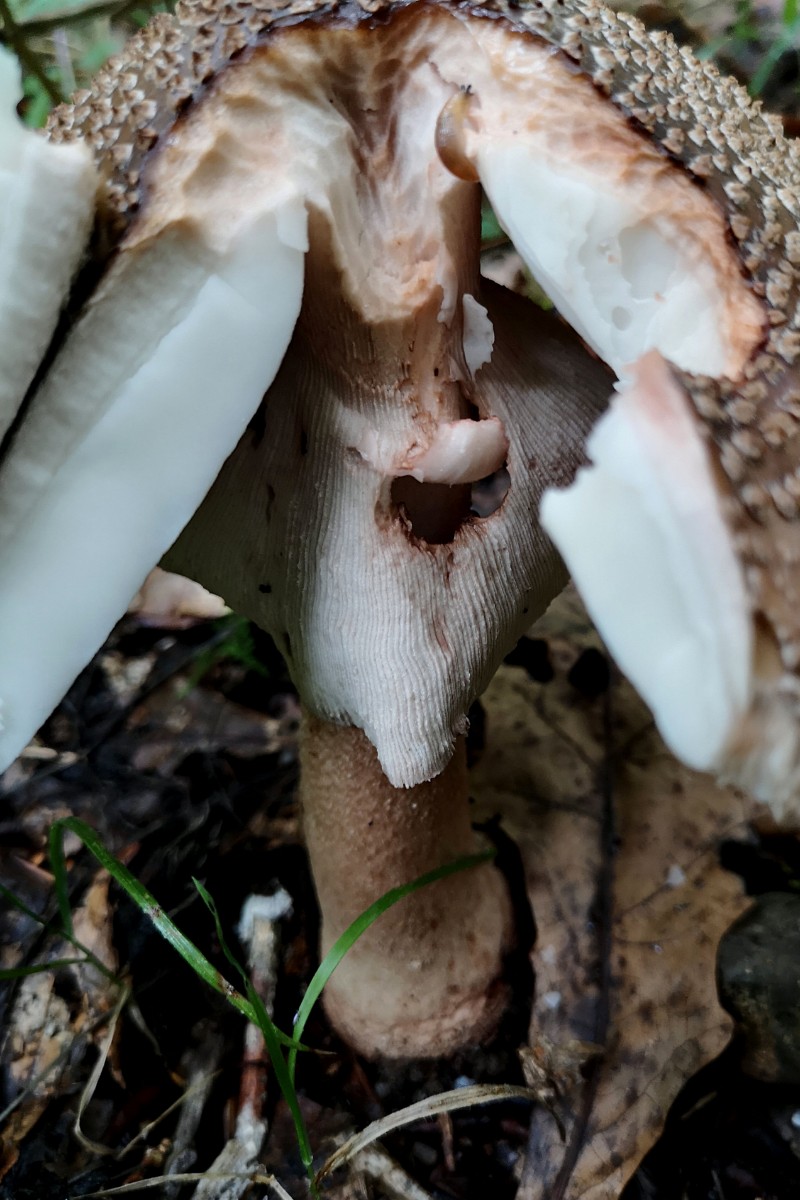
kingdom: Fungi
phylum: Basidiomycota
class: Agaricomycetes
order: Agaricales
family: Amanitaceae
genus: Amanita
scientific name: Amanita rubescens
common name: rødmende fluesvamp
